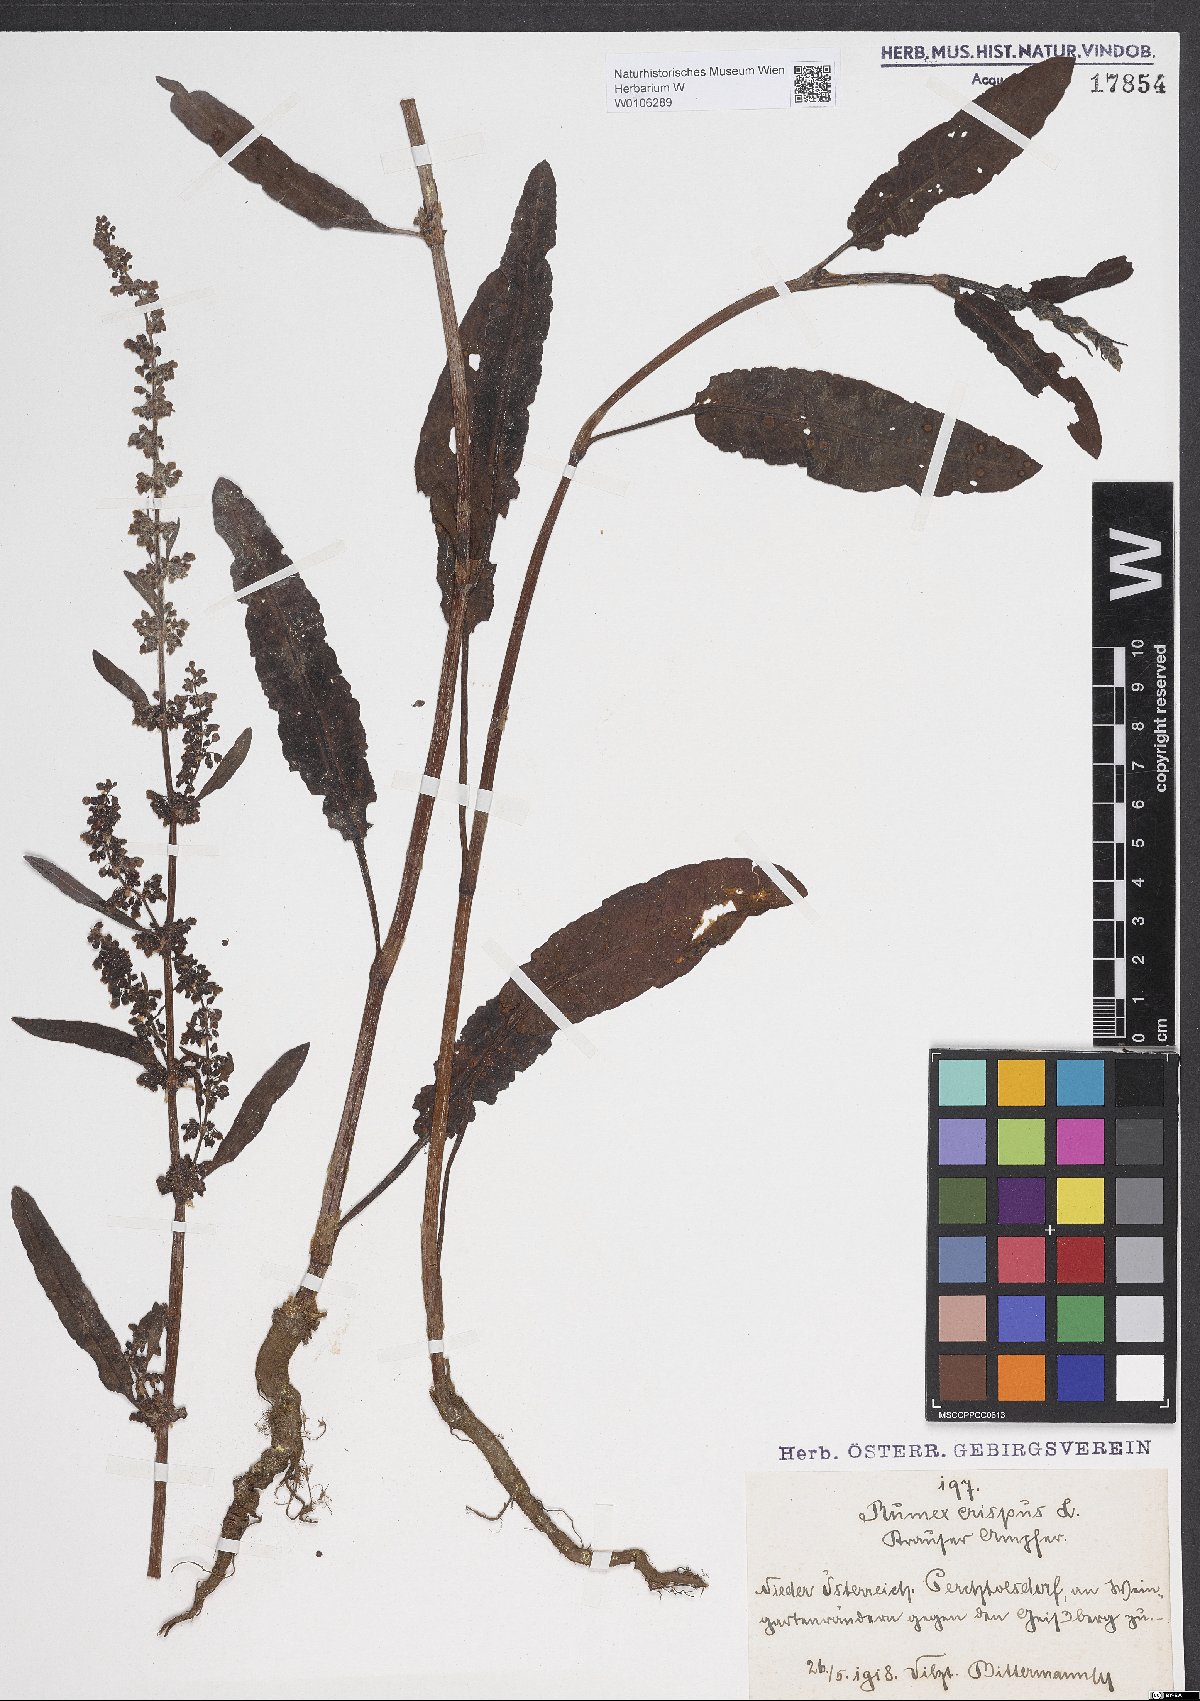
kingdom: Plantae
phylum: Tracheophyta
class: Magnoliopsida
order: Caryophyllales
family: Polygonaceae
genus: Rumex
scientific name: Rumex crispus
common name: Curled dock
